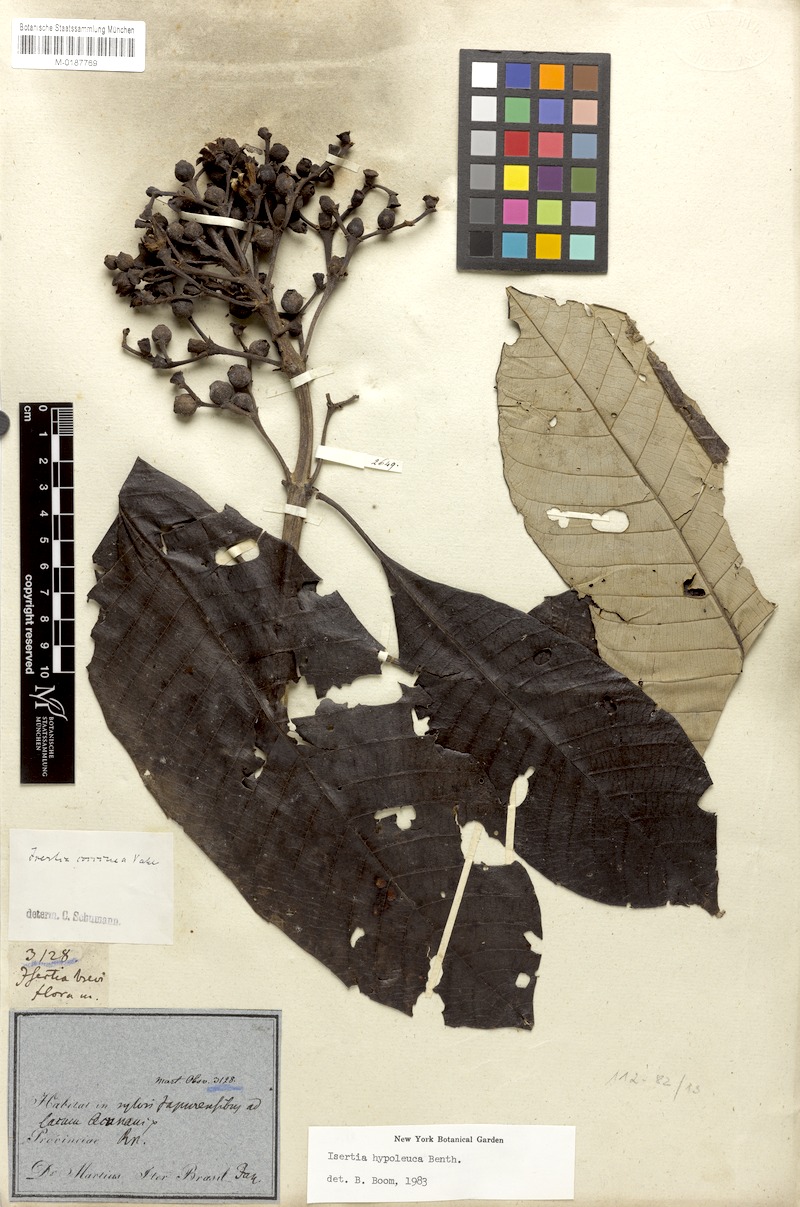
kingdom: Plantae
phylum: Tracheophyta
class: Magnoliopsida
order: Gentianales
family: Rubiaceae
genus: Isertia
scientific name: Isertia hypoleuca
